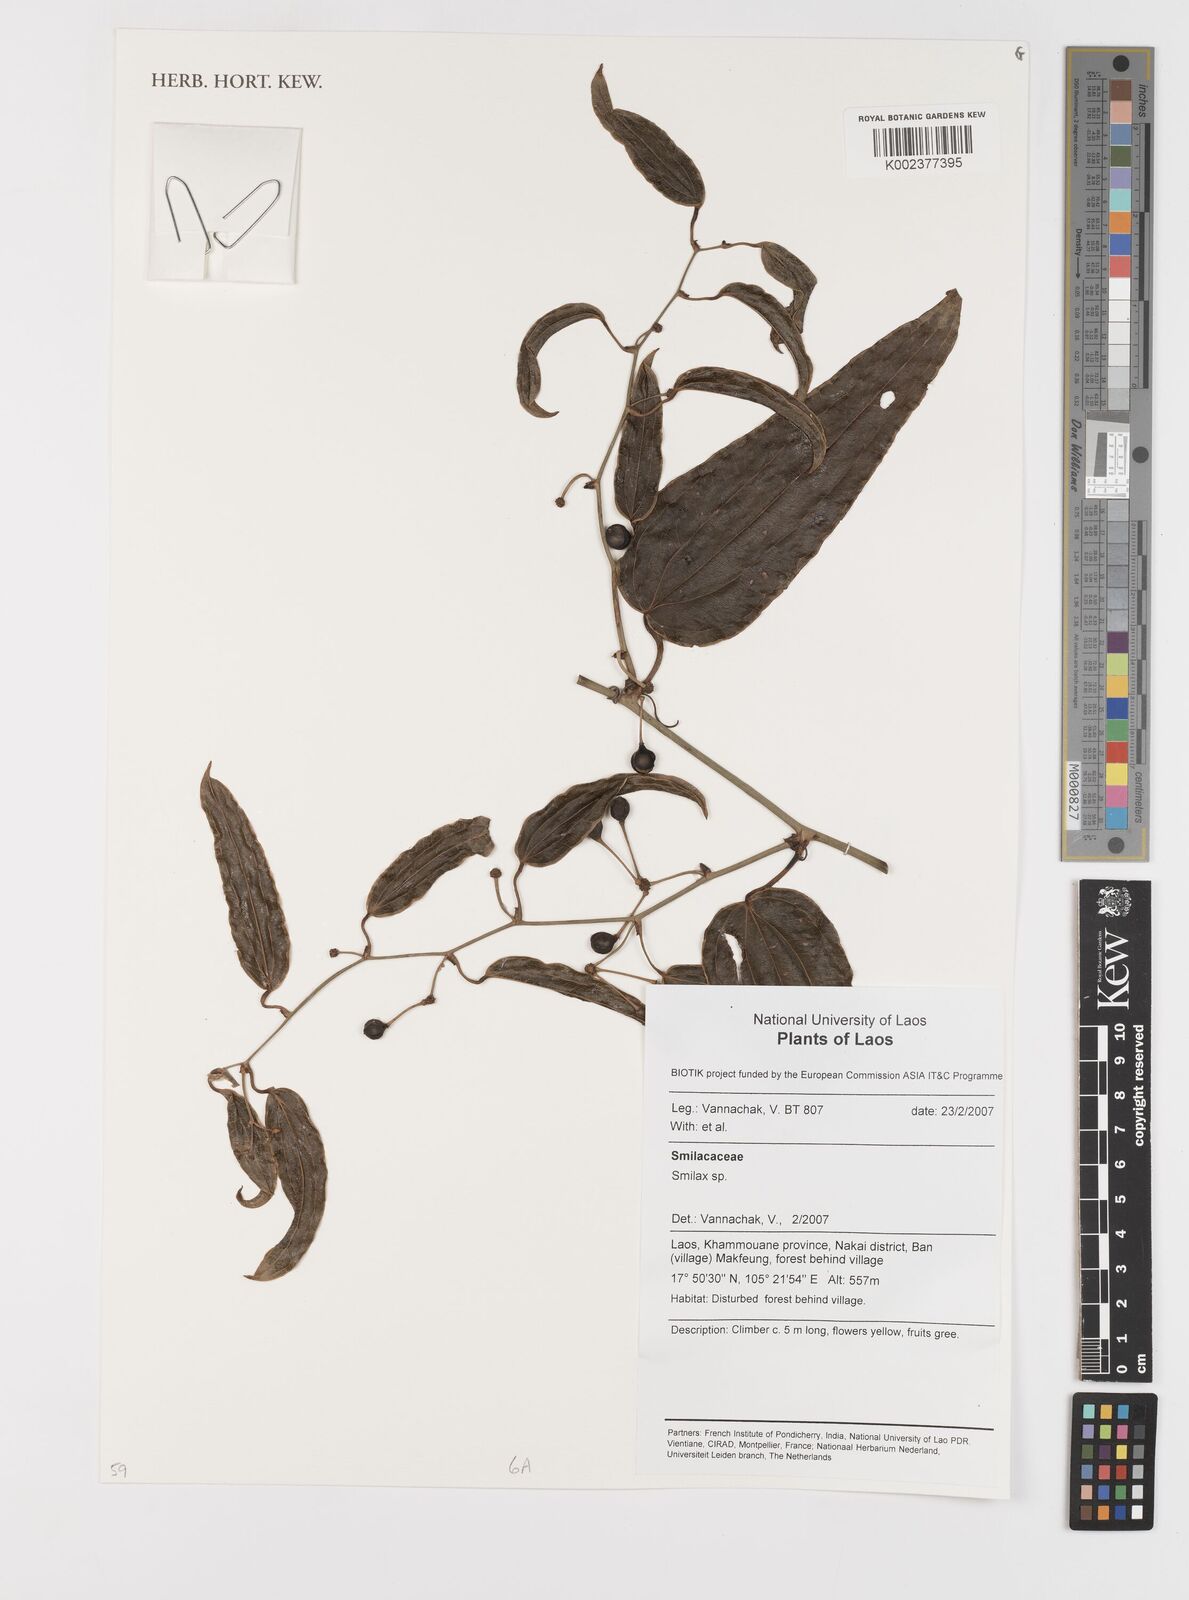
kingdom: Plantae
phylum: Tracheophyta
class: Liliopsida
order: Liliales
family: Smilacaceae
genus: Smilax
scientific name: Smilax
